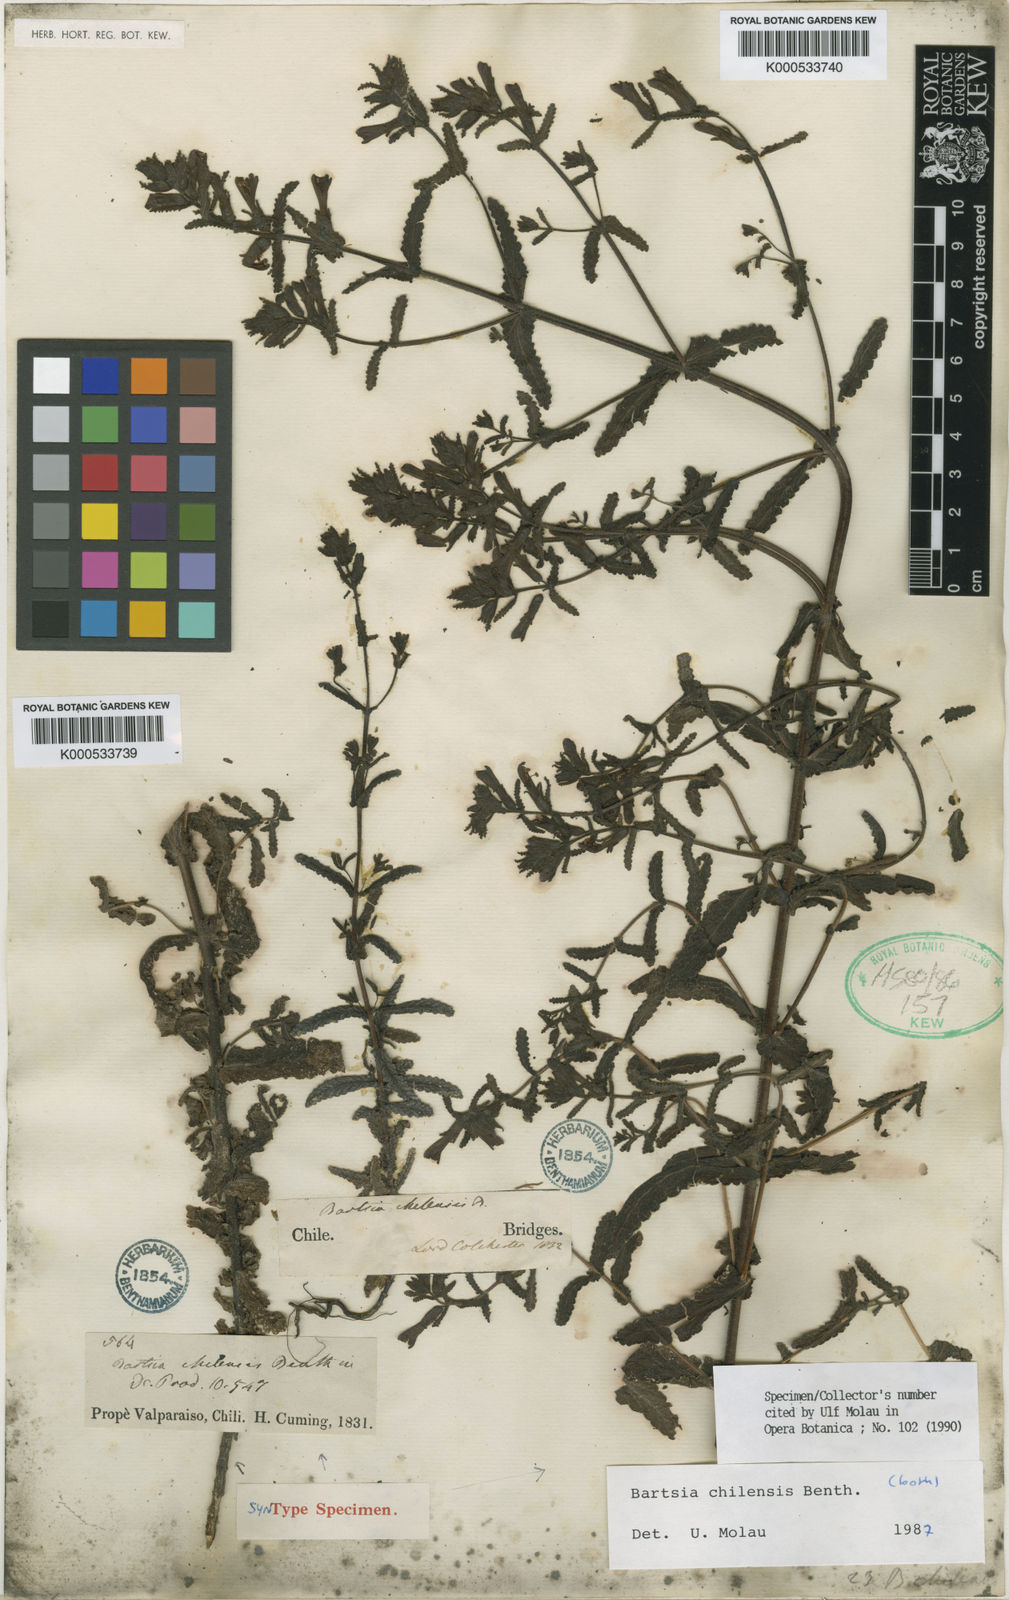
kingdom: Plantae
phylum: Tracheophyta
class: Magnoliopsida
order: Lamiales
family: Orobanchaceae
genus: Neobartsia
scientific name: Neobartsia chilensis
